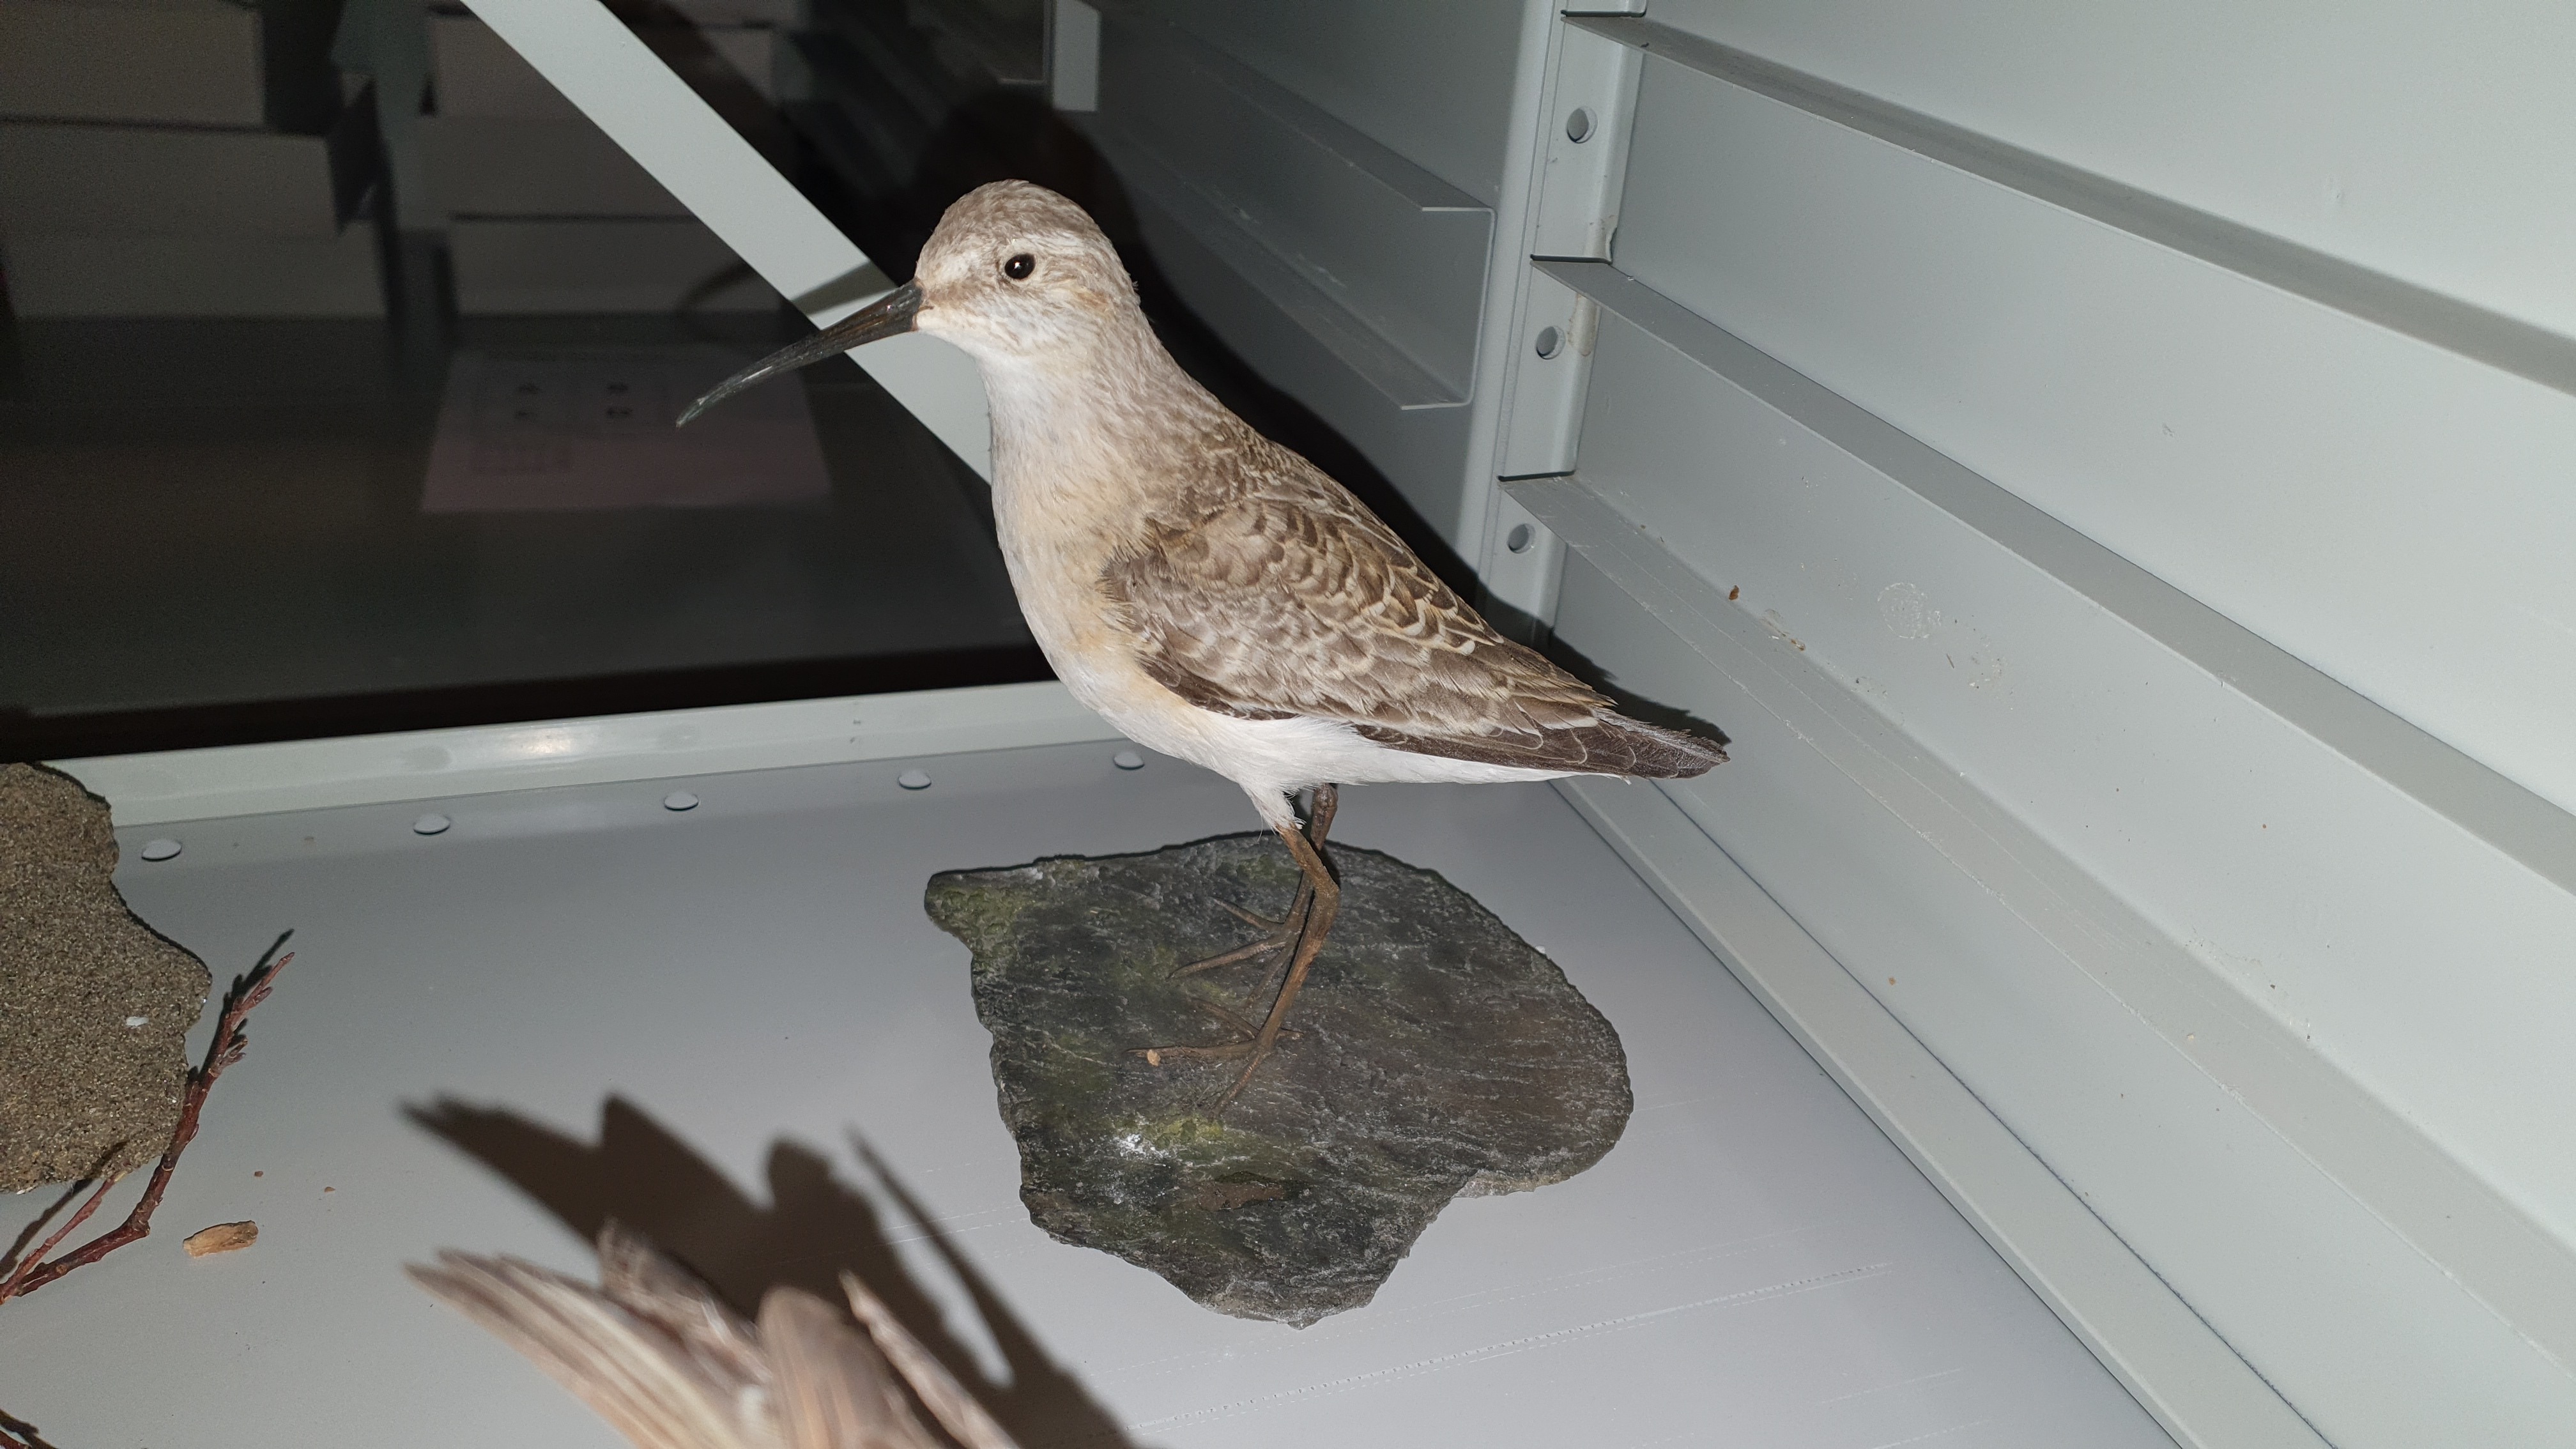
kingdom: Animalia
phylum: Chordata
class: Aves
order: Charadriiformes
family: Scolopacidae
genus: Calidris
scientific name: Calidris ferruginea
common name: Curlew sandpiper
